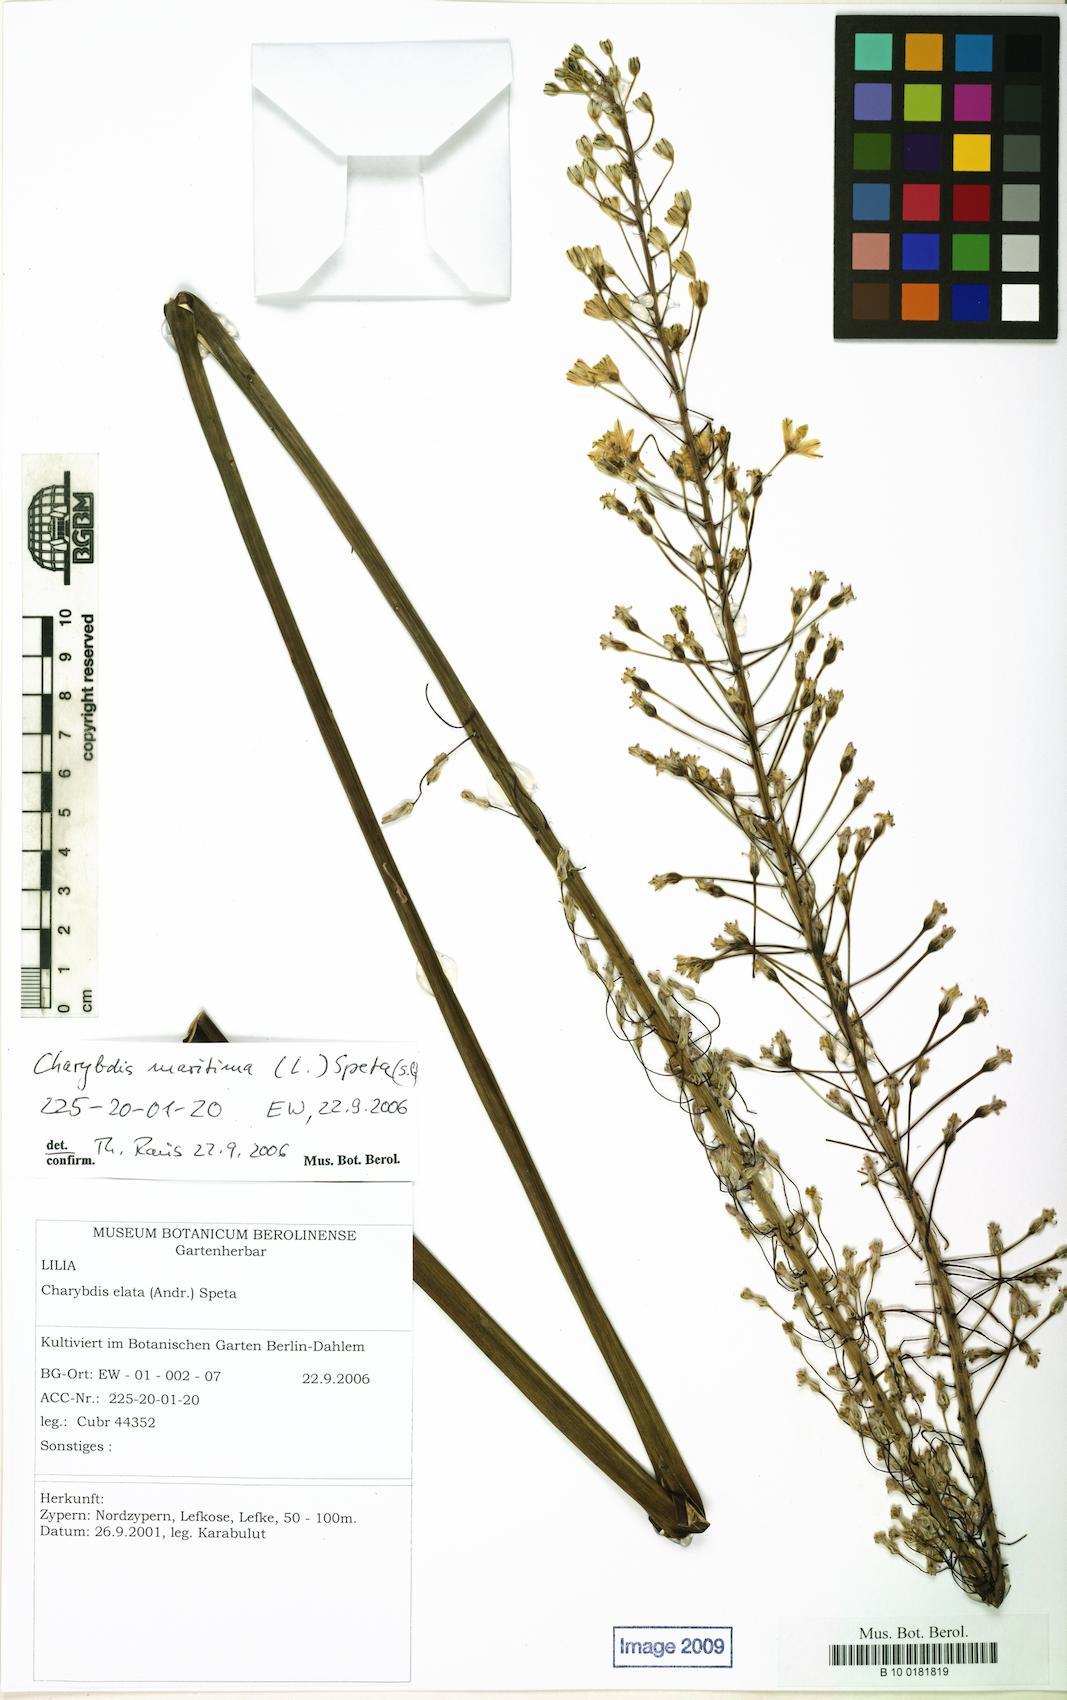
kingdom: Plantae
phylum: Tracheophyta
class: Liliopsida
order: Asparagales
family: Asparagaceae
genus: Drimia
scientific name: Drimia maritima
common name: Maritime squill
